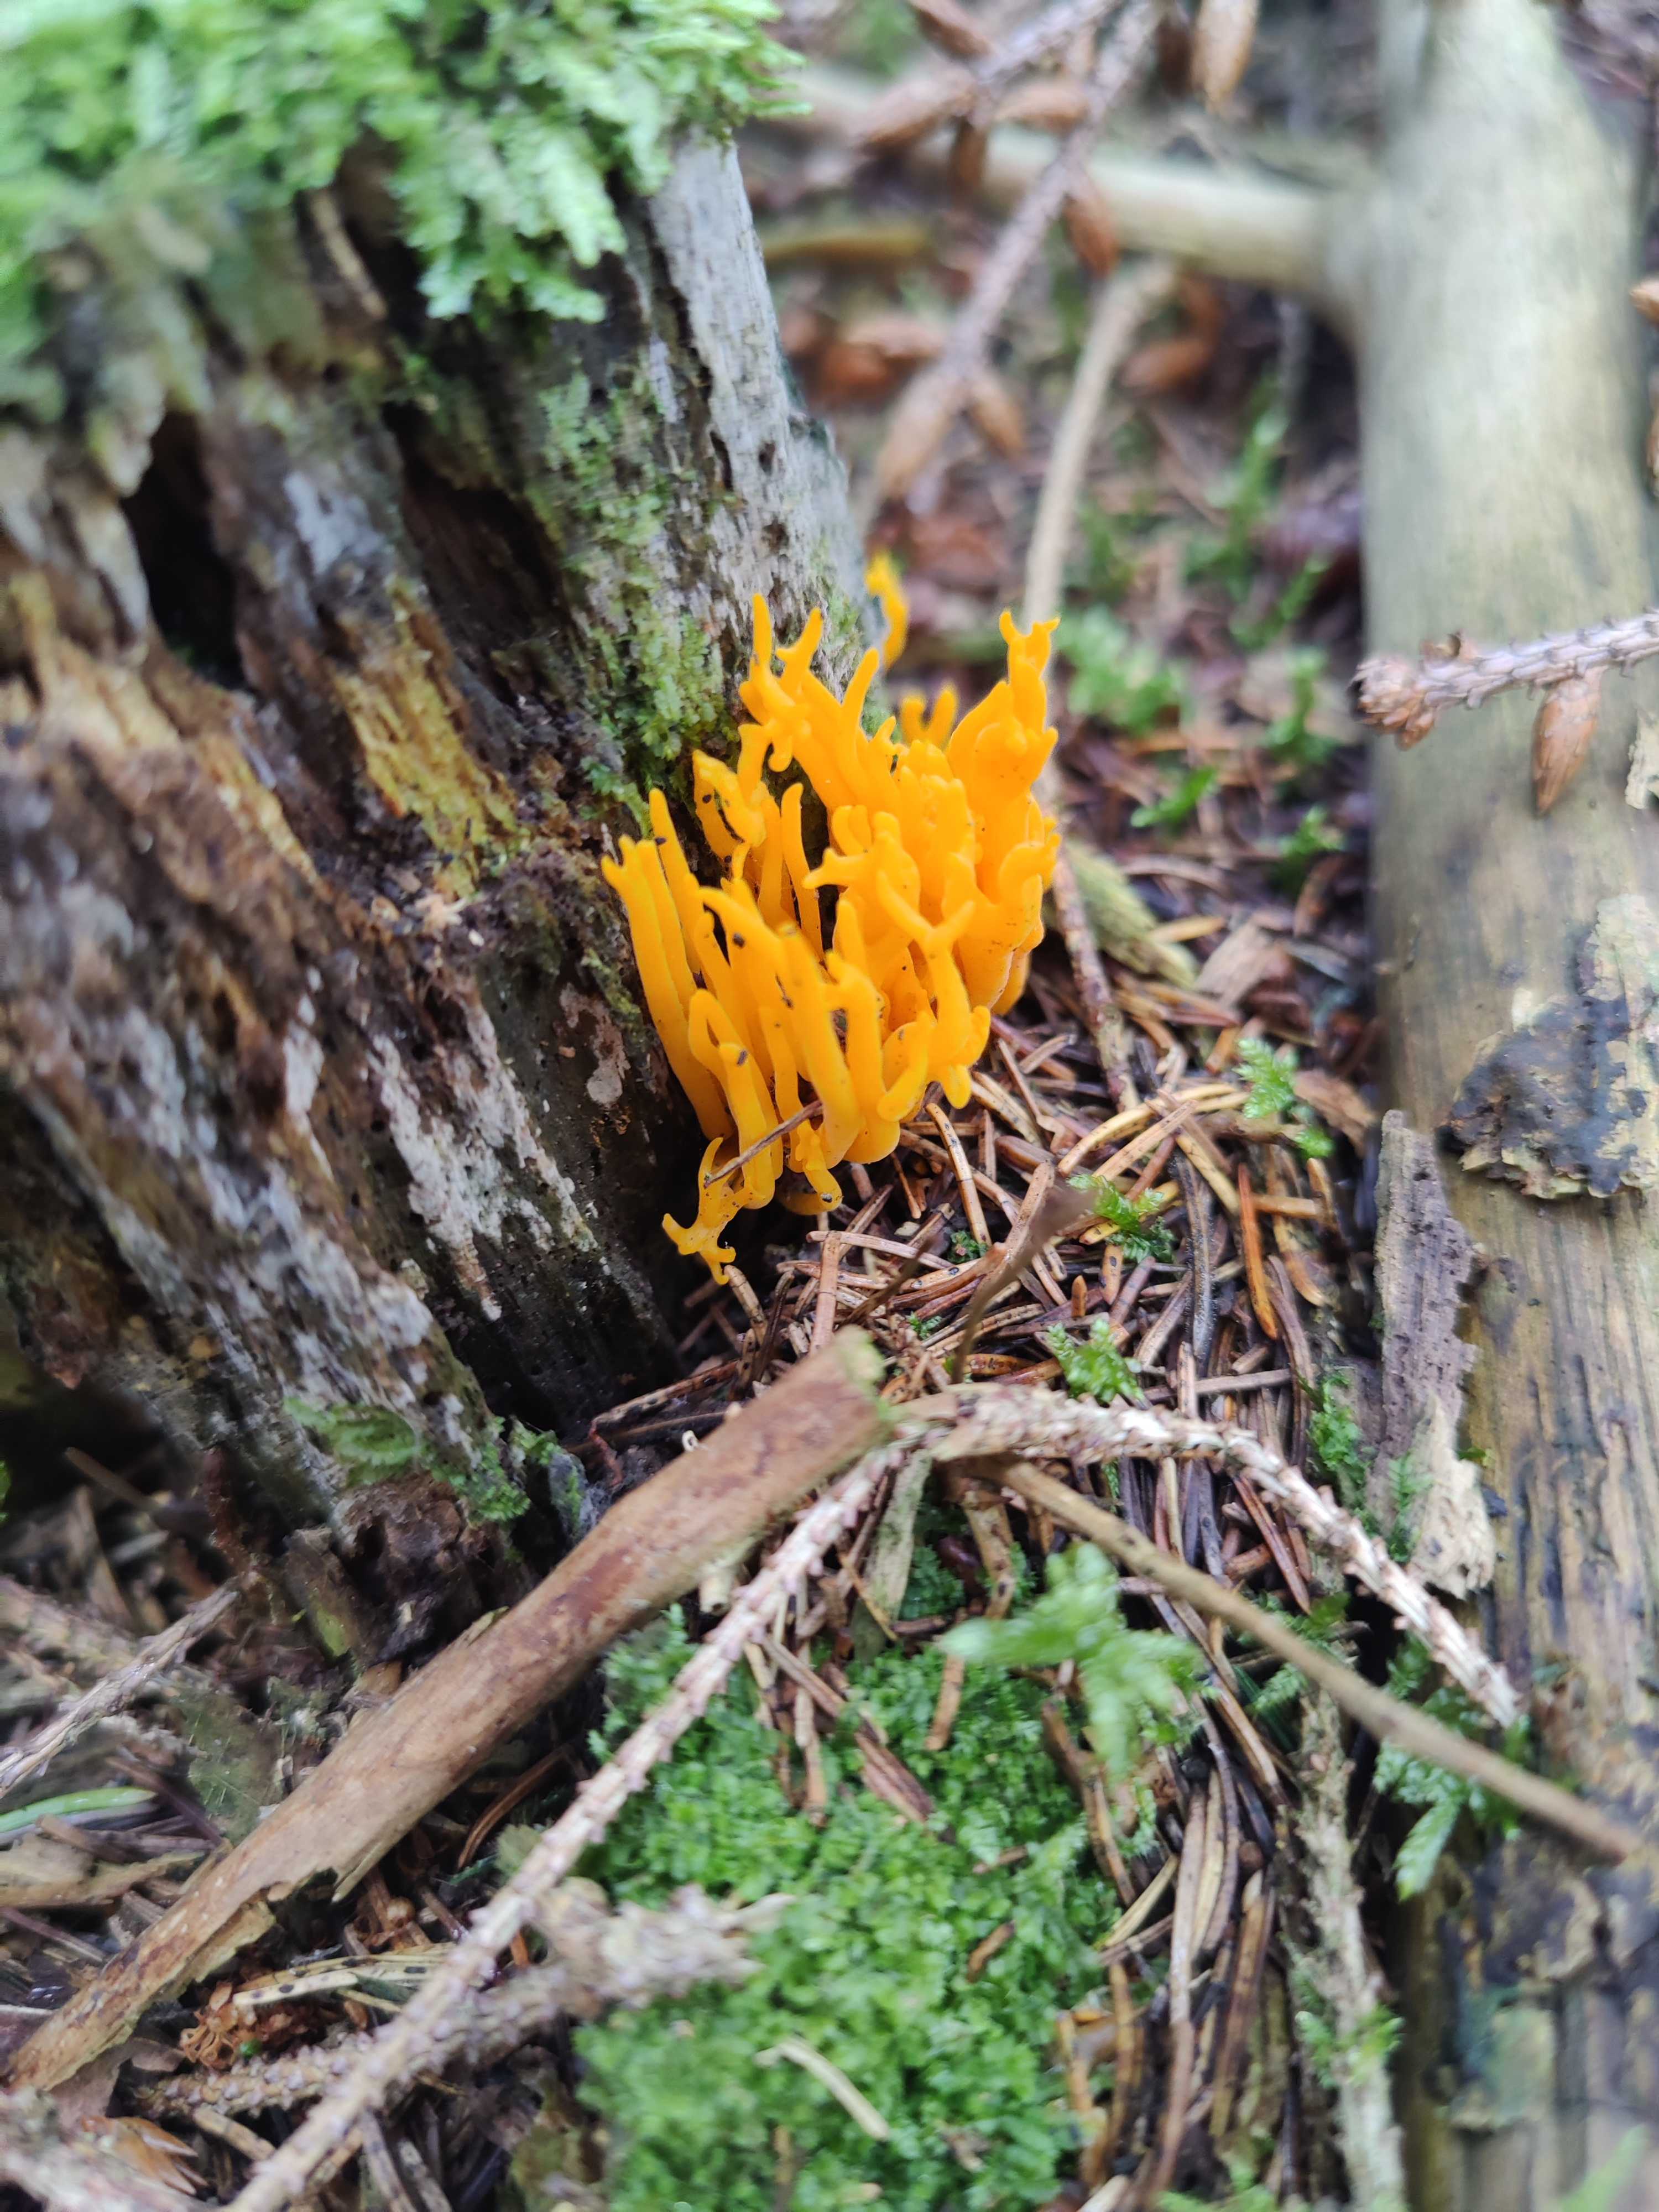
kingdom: Fungi
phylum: Basidiomycota
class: Dacrymycetes
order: Dacrymycetales
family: Dacrymycetaceae
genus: Calocera
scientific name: Calocera viscosa
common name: almindelig guldgaffel
